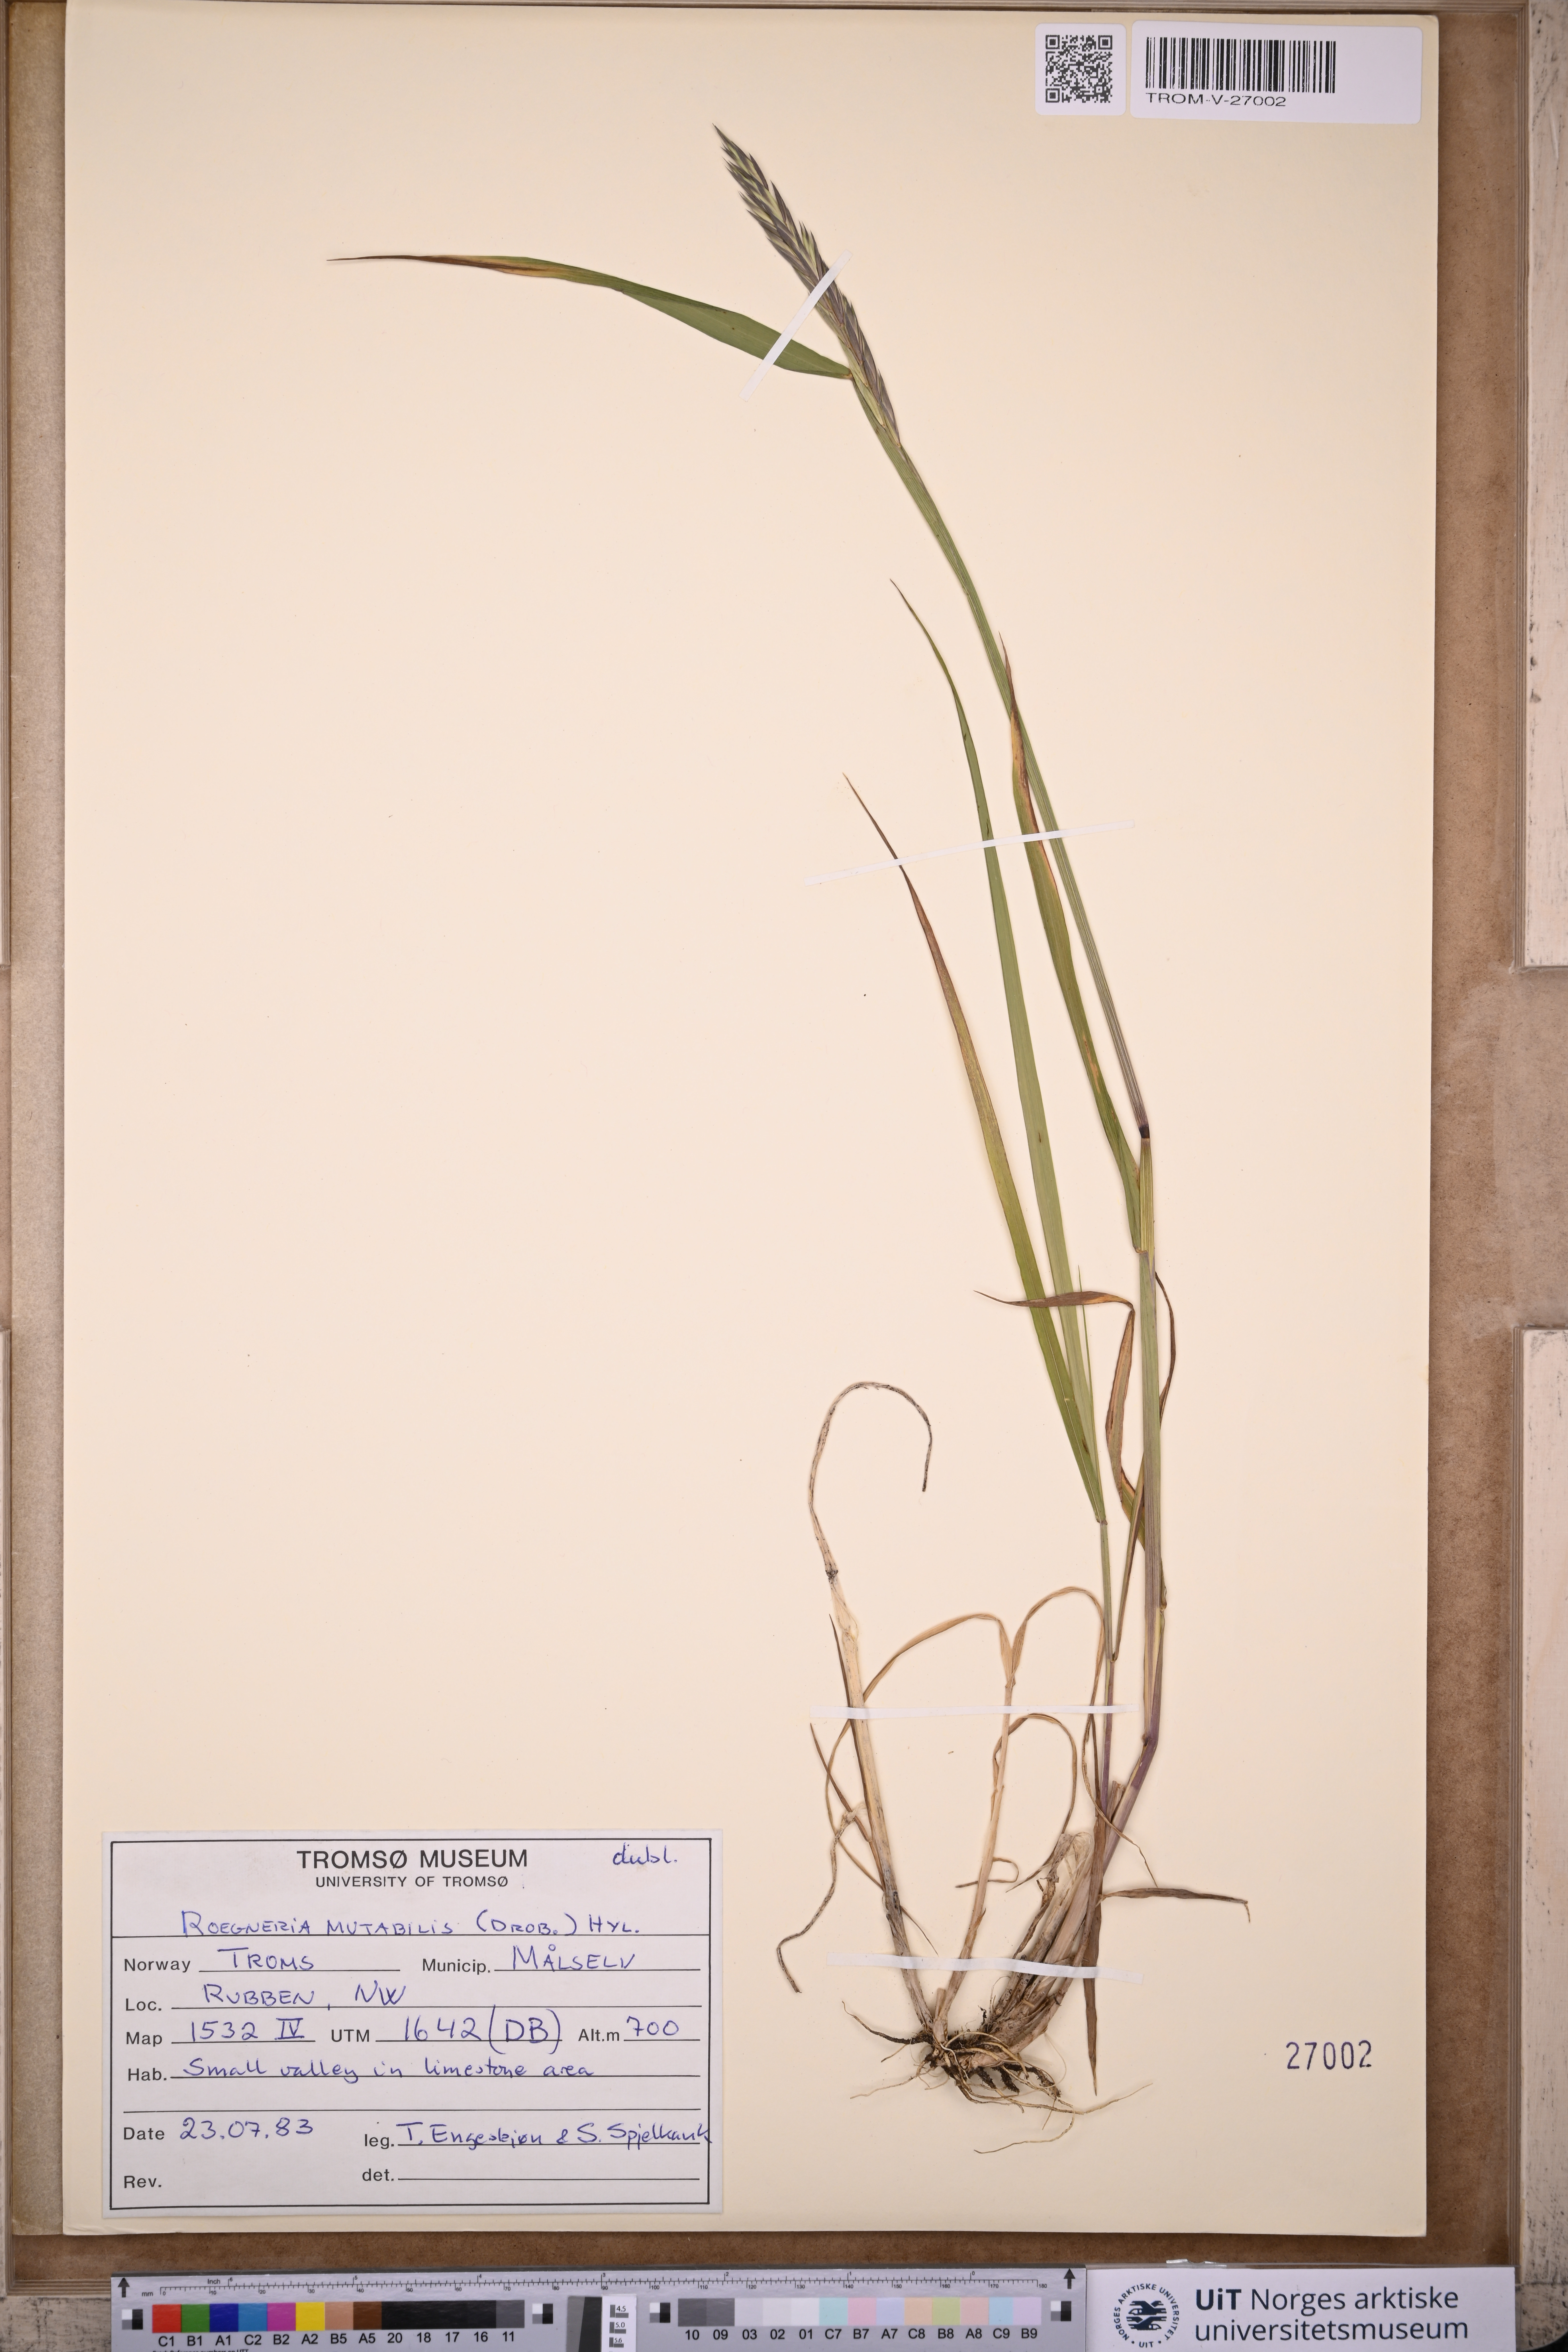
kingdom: Plantae
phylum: Tracheophyta
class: Liliopsida
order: Poales
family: Poaceae
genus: Elymus
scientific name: Elymus mutabilis
